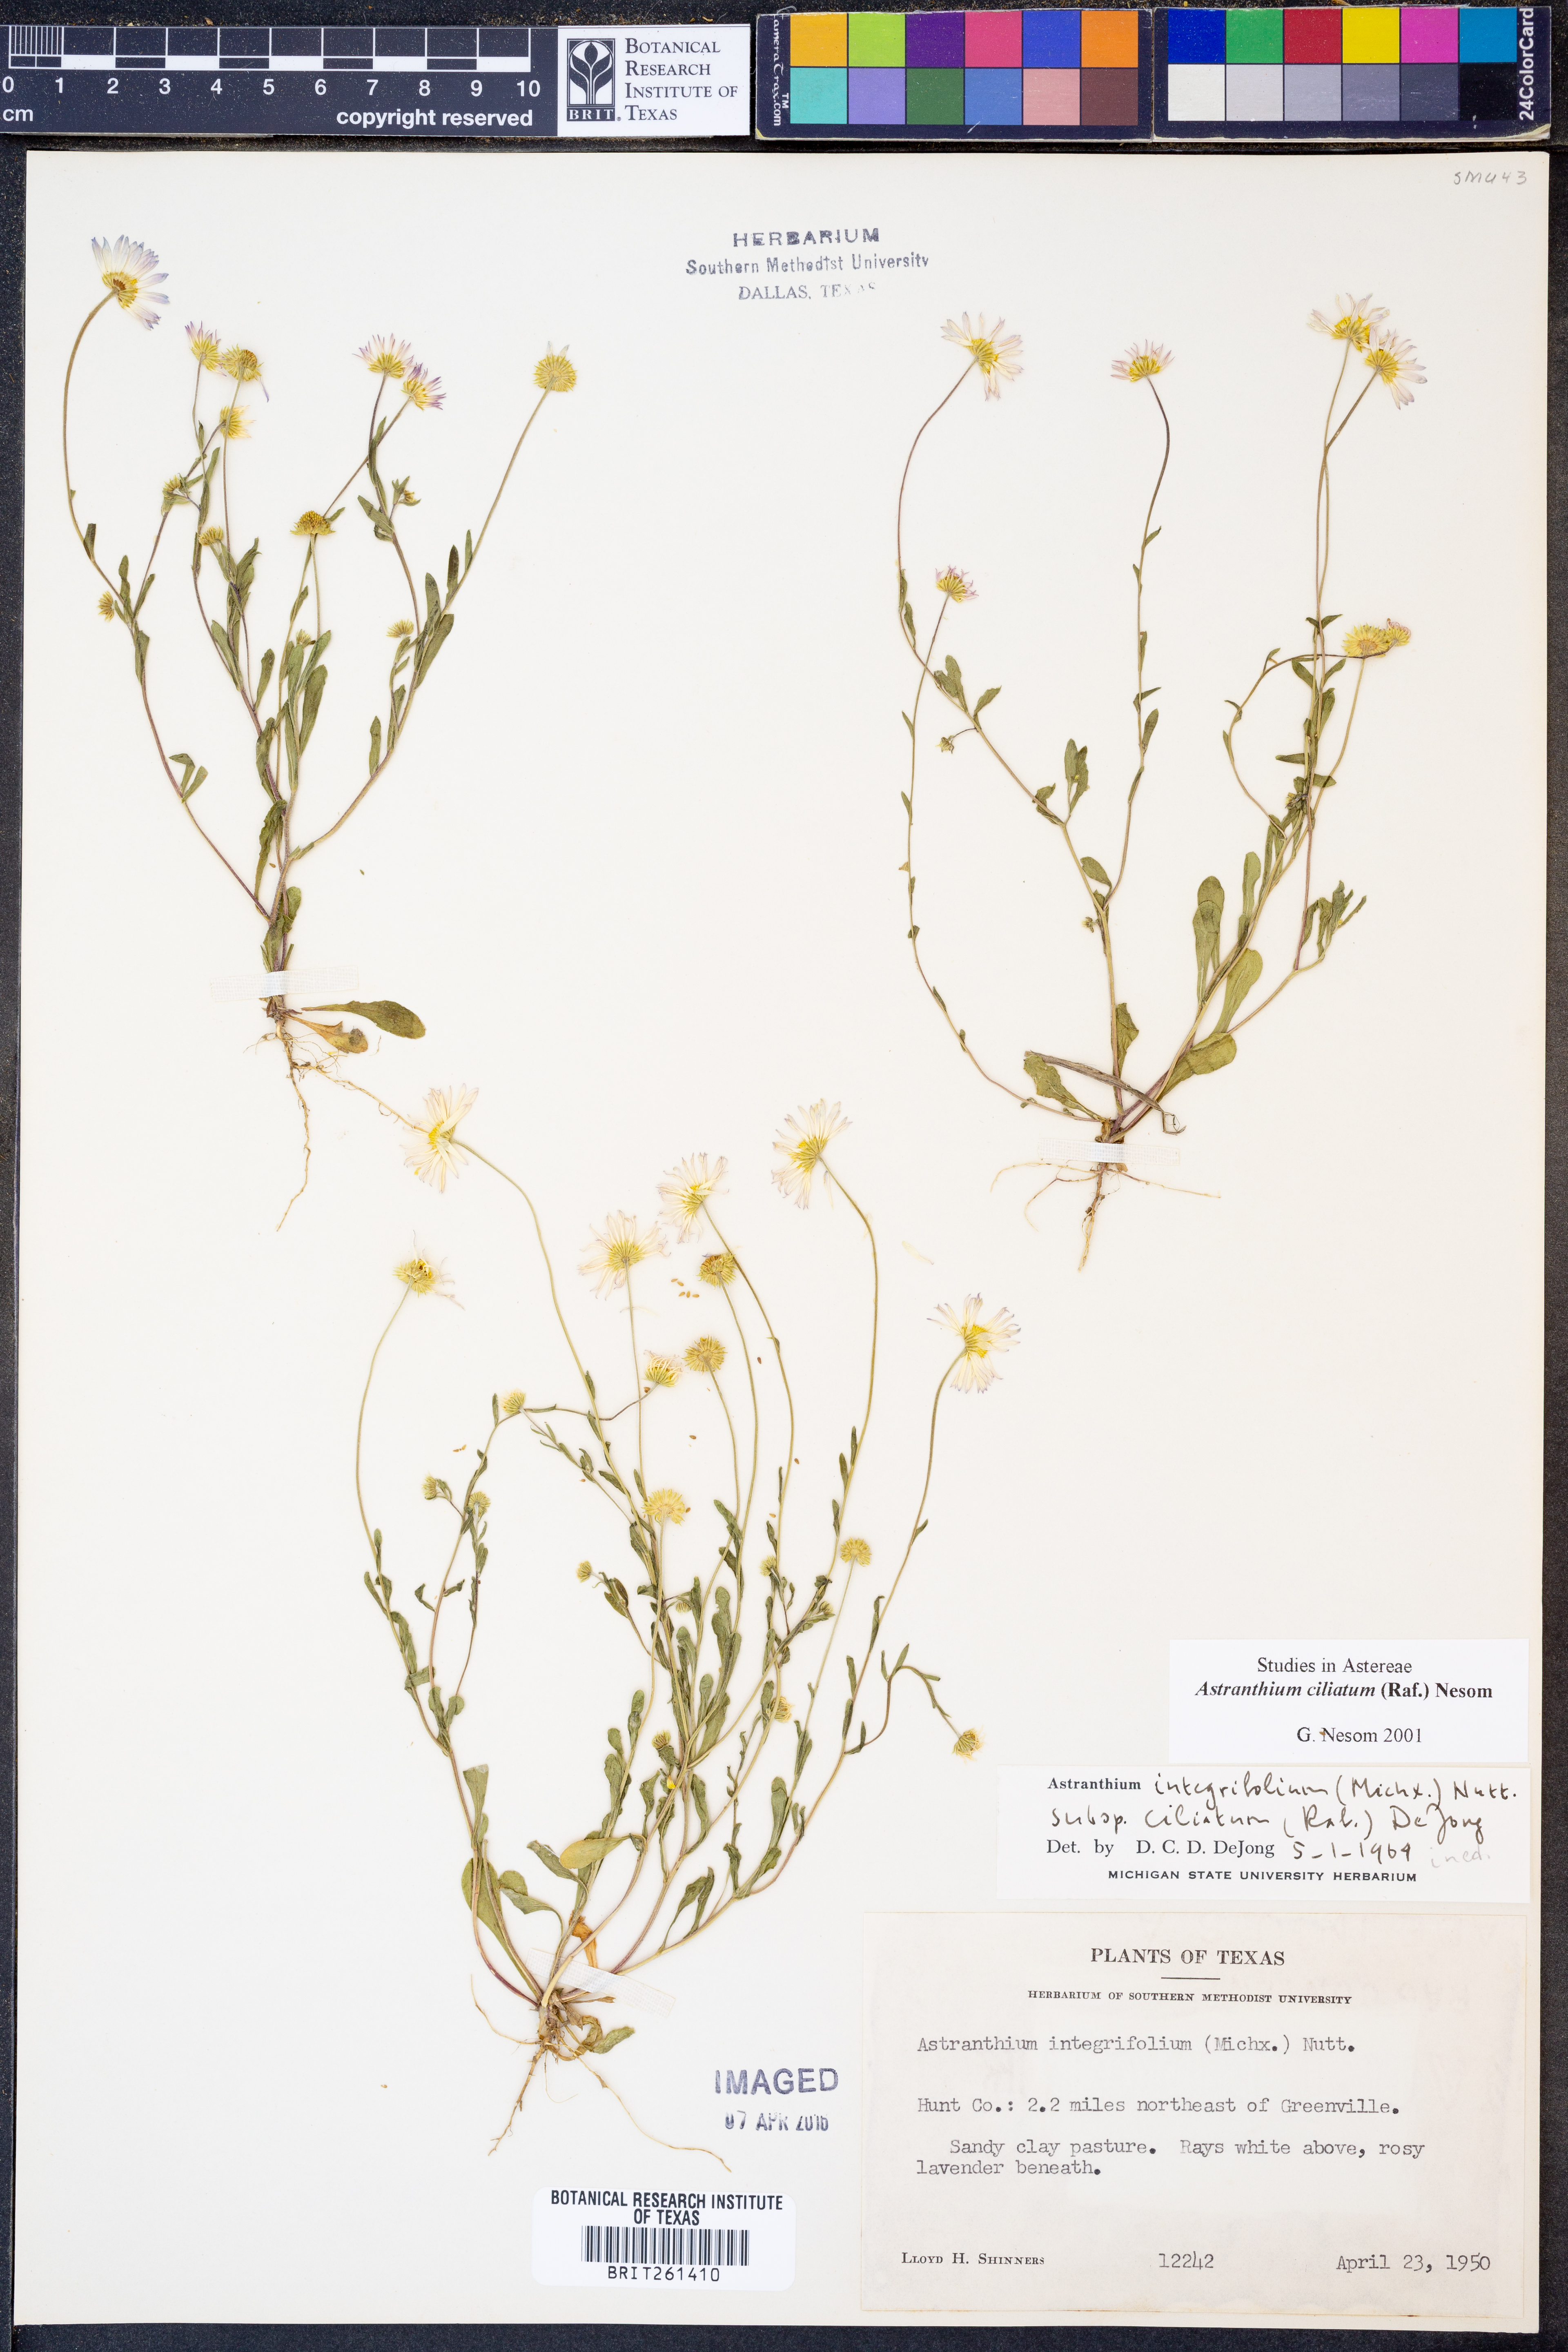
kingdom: Plantae
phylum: Tracheophyta
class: Magnoliopsida
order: Asterales
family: Asteraceae
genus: Astranthium
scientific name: Astranthium ciliatum
